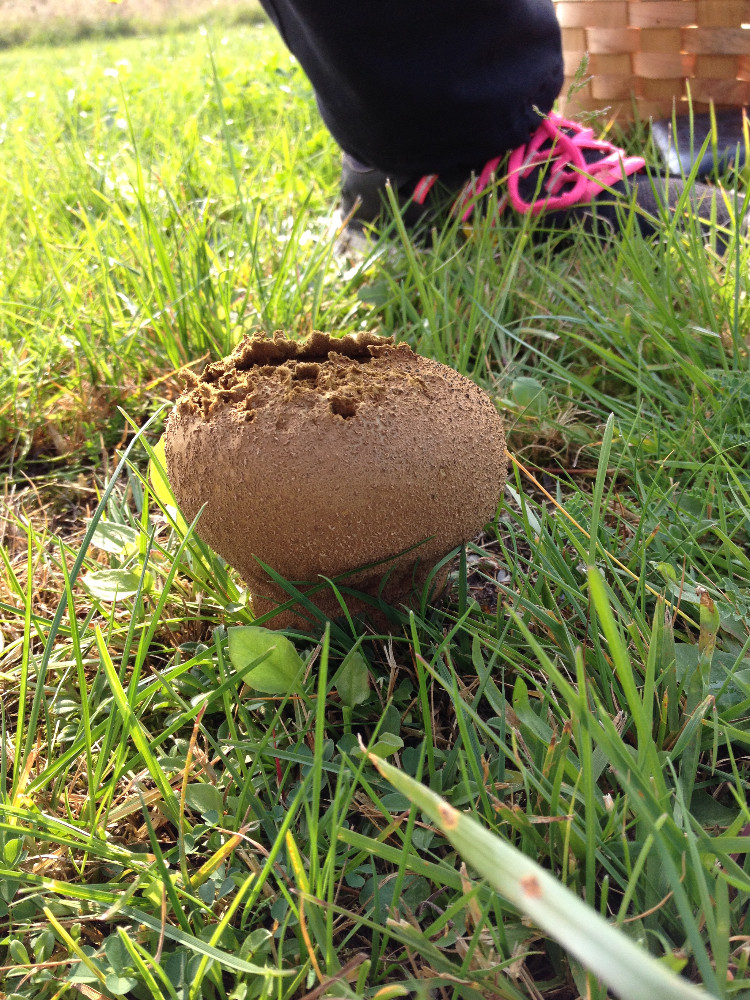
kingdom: Fungi
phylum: Basidiomycota
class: Agaricomycetes
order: Agaricales
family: Lycoperdaceae
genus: Bovistella
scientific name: Bovistella utriformis
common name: skællet støvbold
